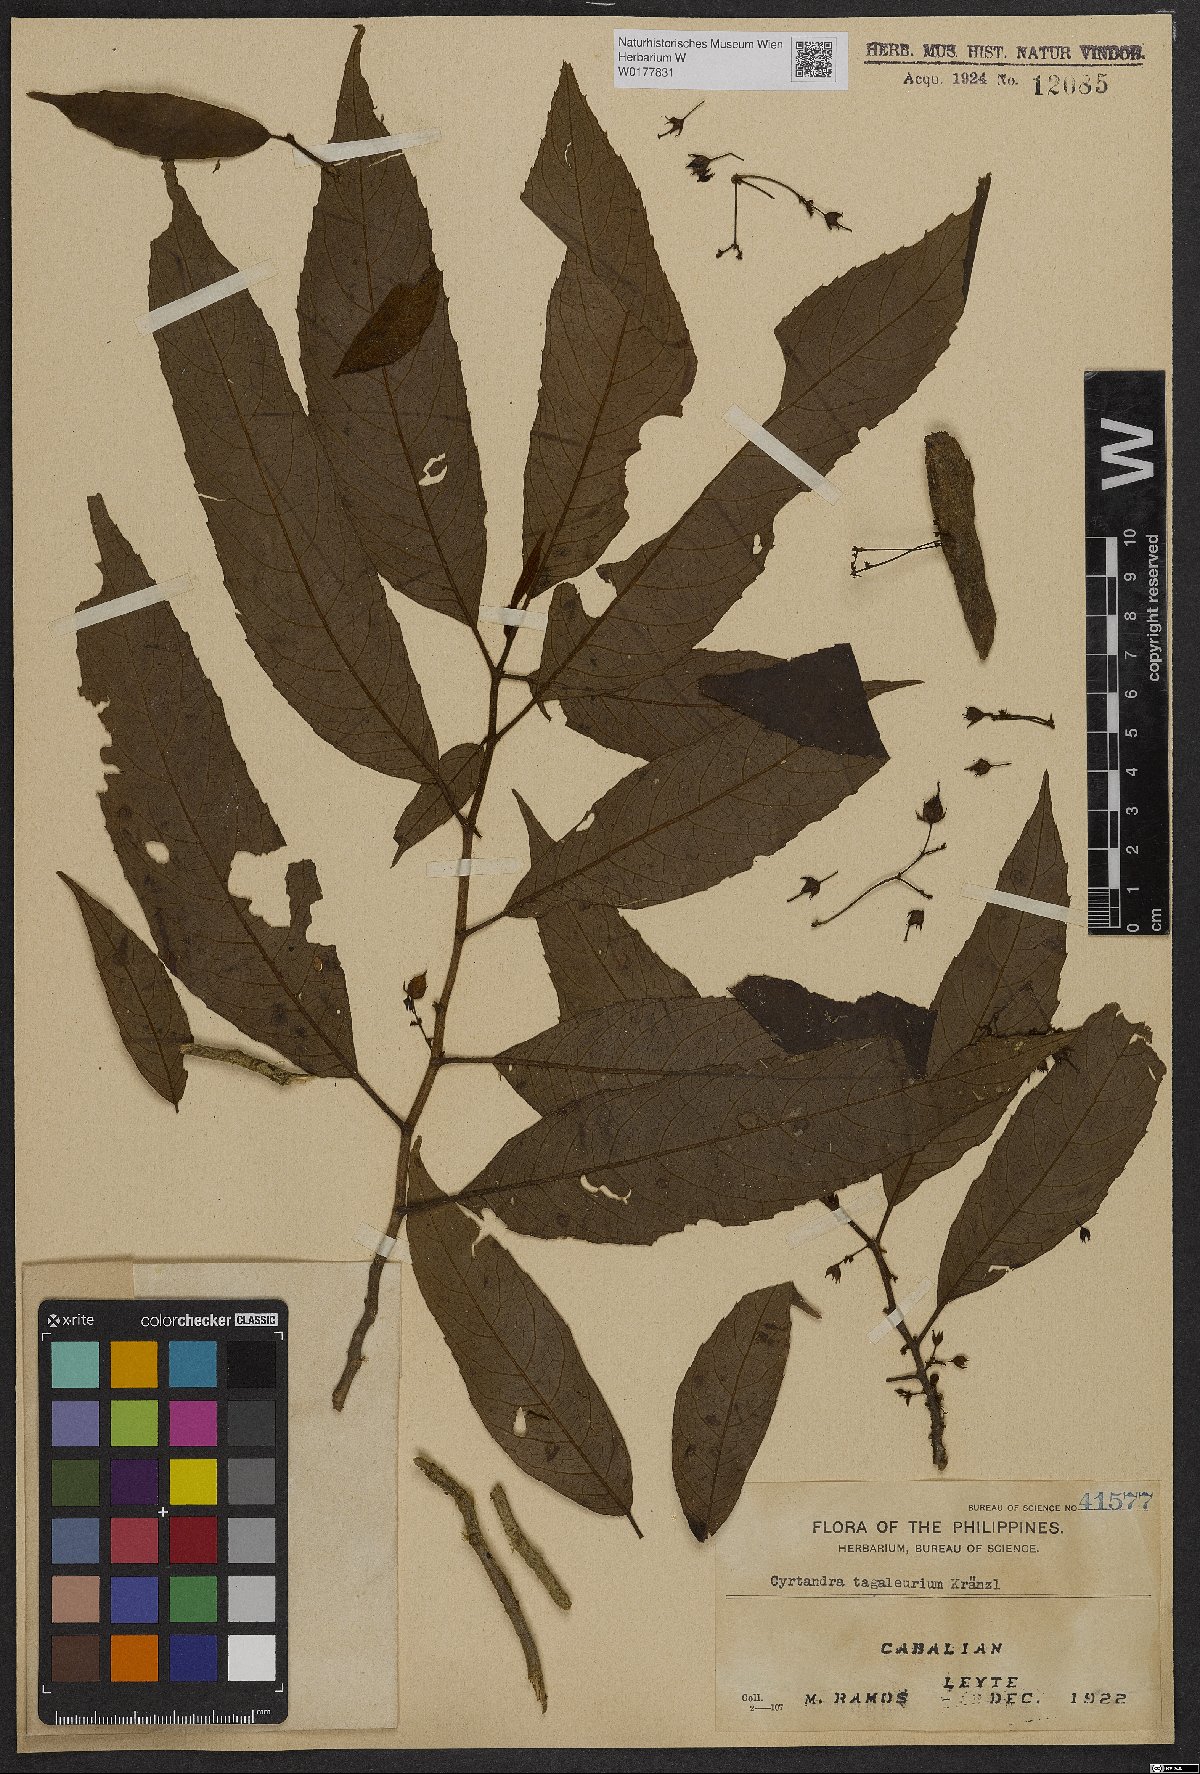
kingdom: Plantae
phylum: Tracheophyta
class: Magnoliopsida
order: Lamiales
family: Gesneriaceae
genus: Cyrtandra
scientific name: Cyrtandra
